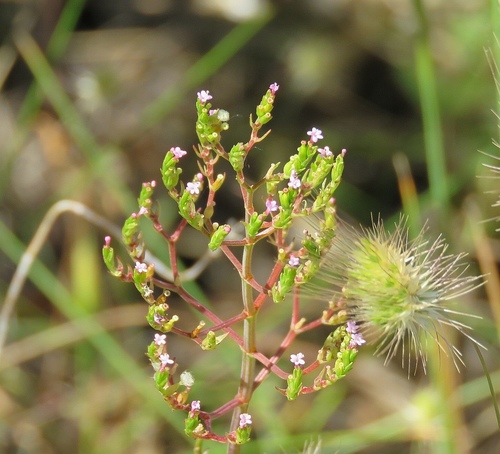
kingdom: Plantae
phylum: Tracheophyta
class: Magnoliopsida
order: Dipsacales
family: Caprifoliaceae
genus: Centranthus
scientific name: Centranthus calcitrapae
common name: Annual valerian
